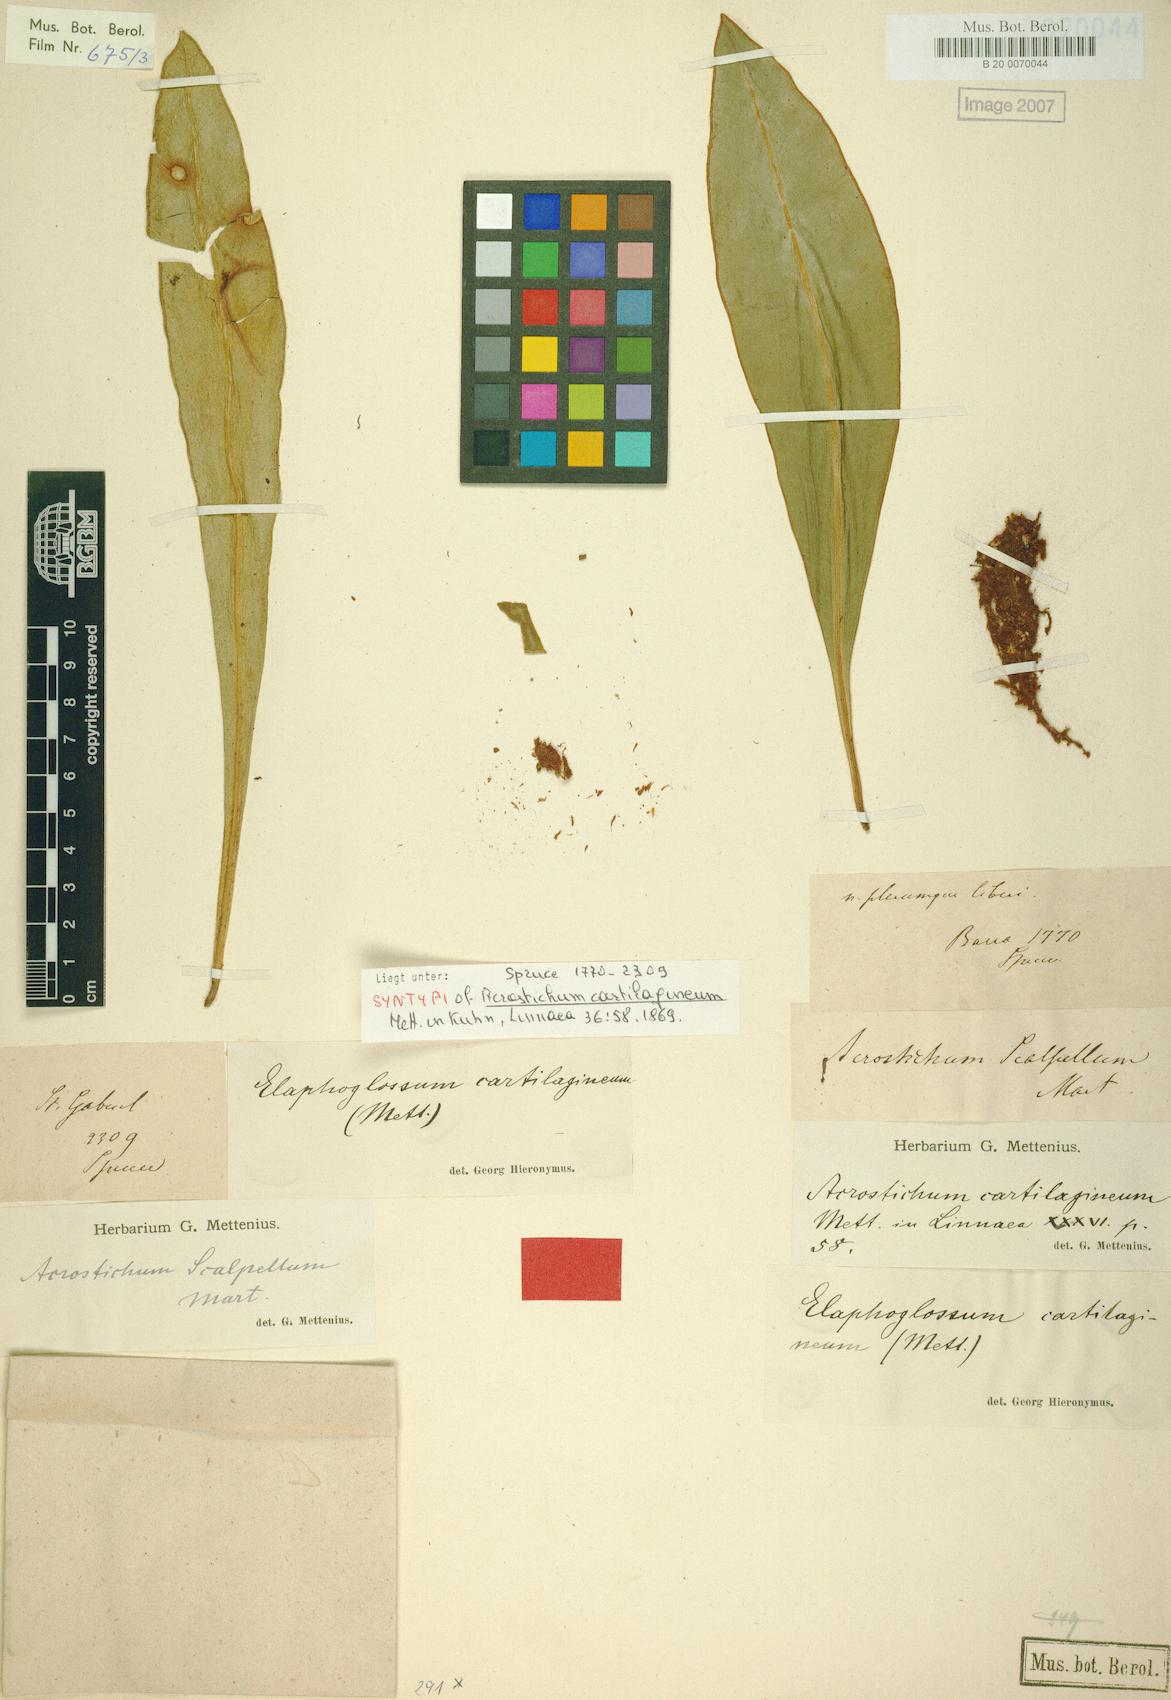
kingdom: Plantae
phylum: Tracheophyta
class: Polypodiopsida
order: Polypodiales
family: Dryopteridaceae
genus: Elaphoglossum
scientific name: Elaphoglossum auricomum
